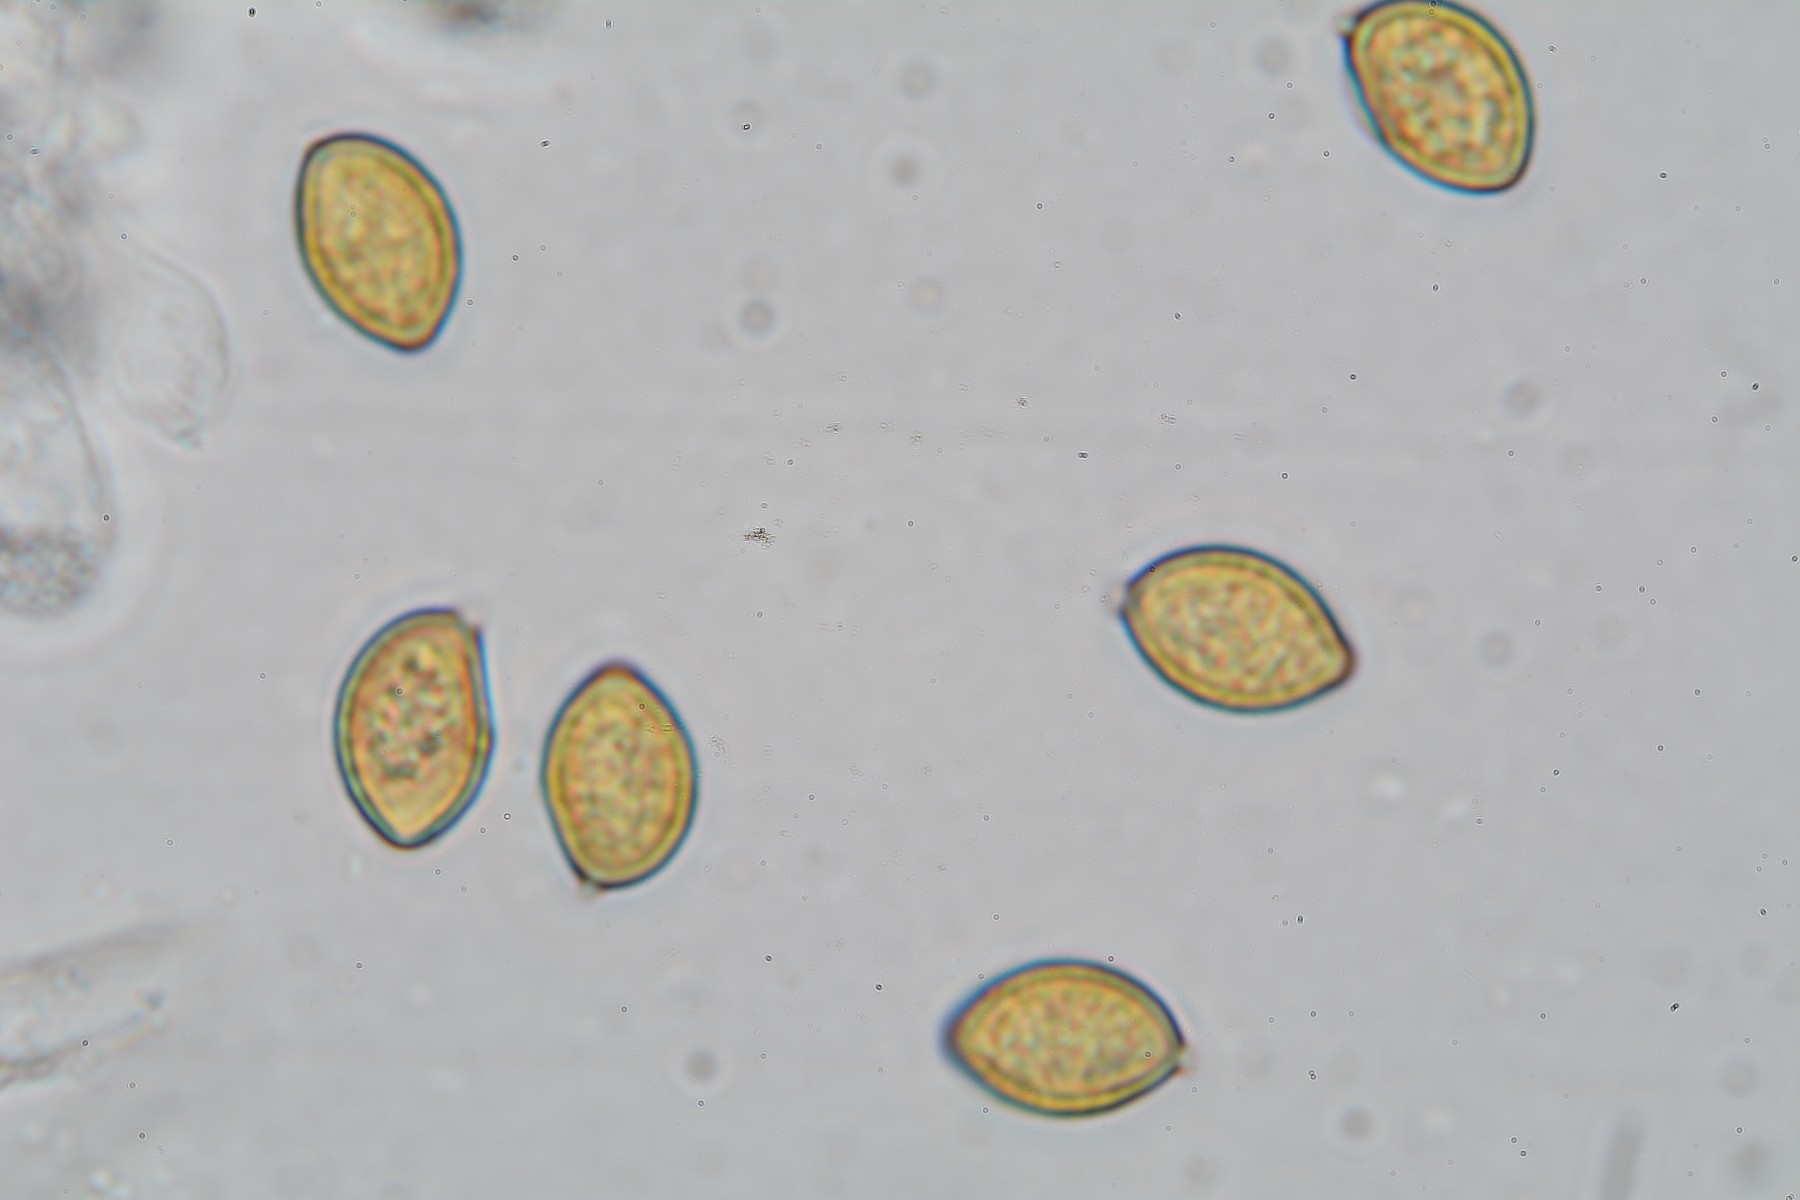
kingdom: Fungi
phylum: Basidiomycota
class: Agaricomycetes
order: Agaricales
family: Hymenogastraceae
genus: Galerina
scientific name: Galerina paludosa
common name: mose-hjelmhat
